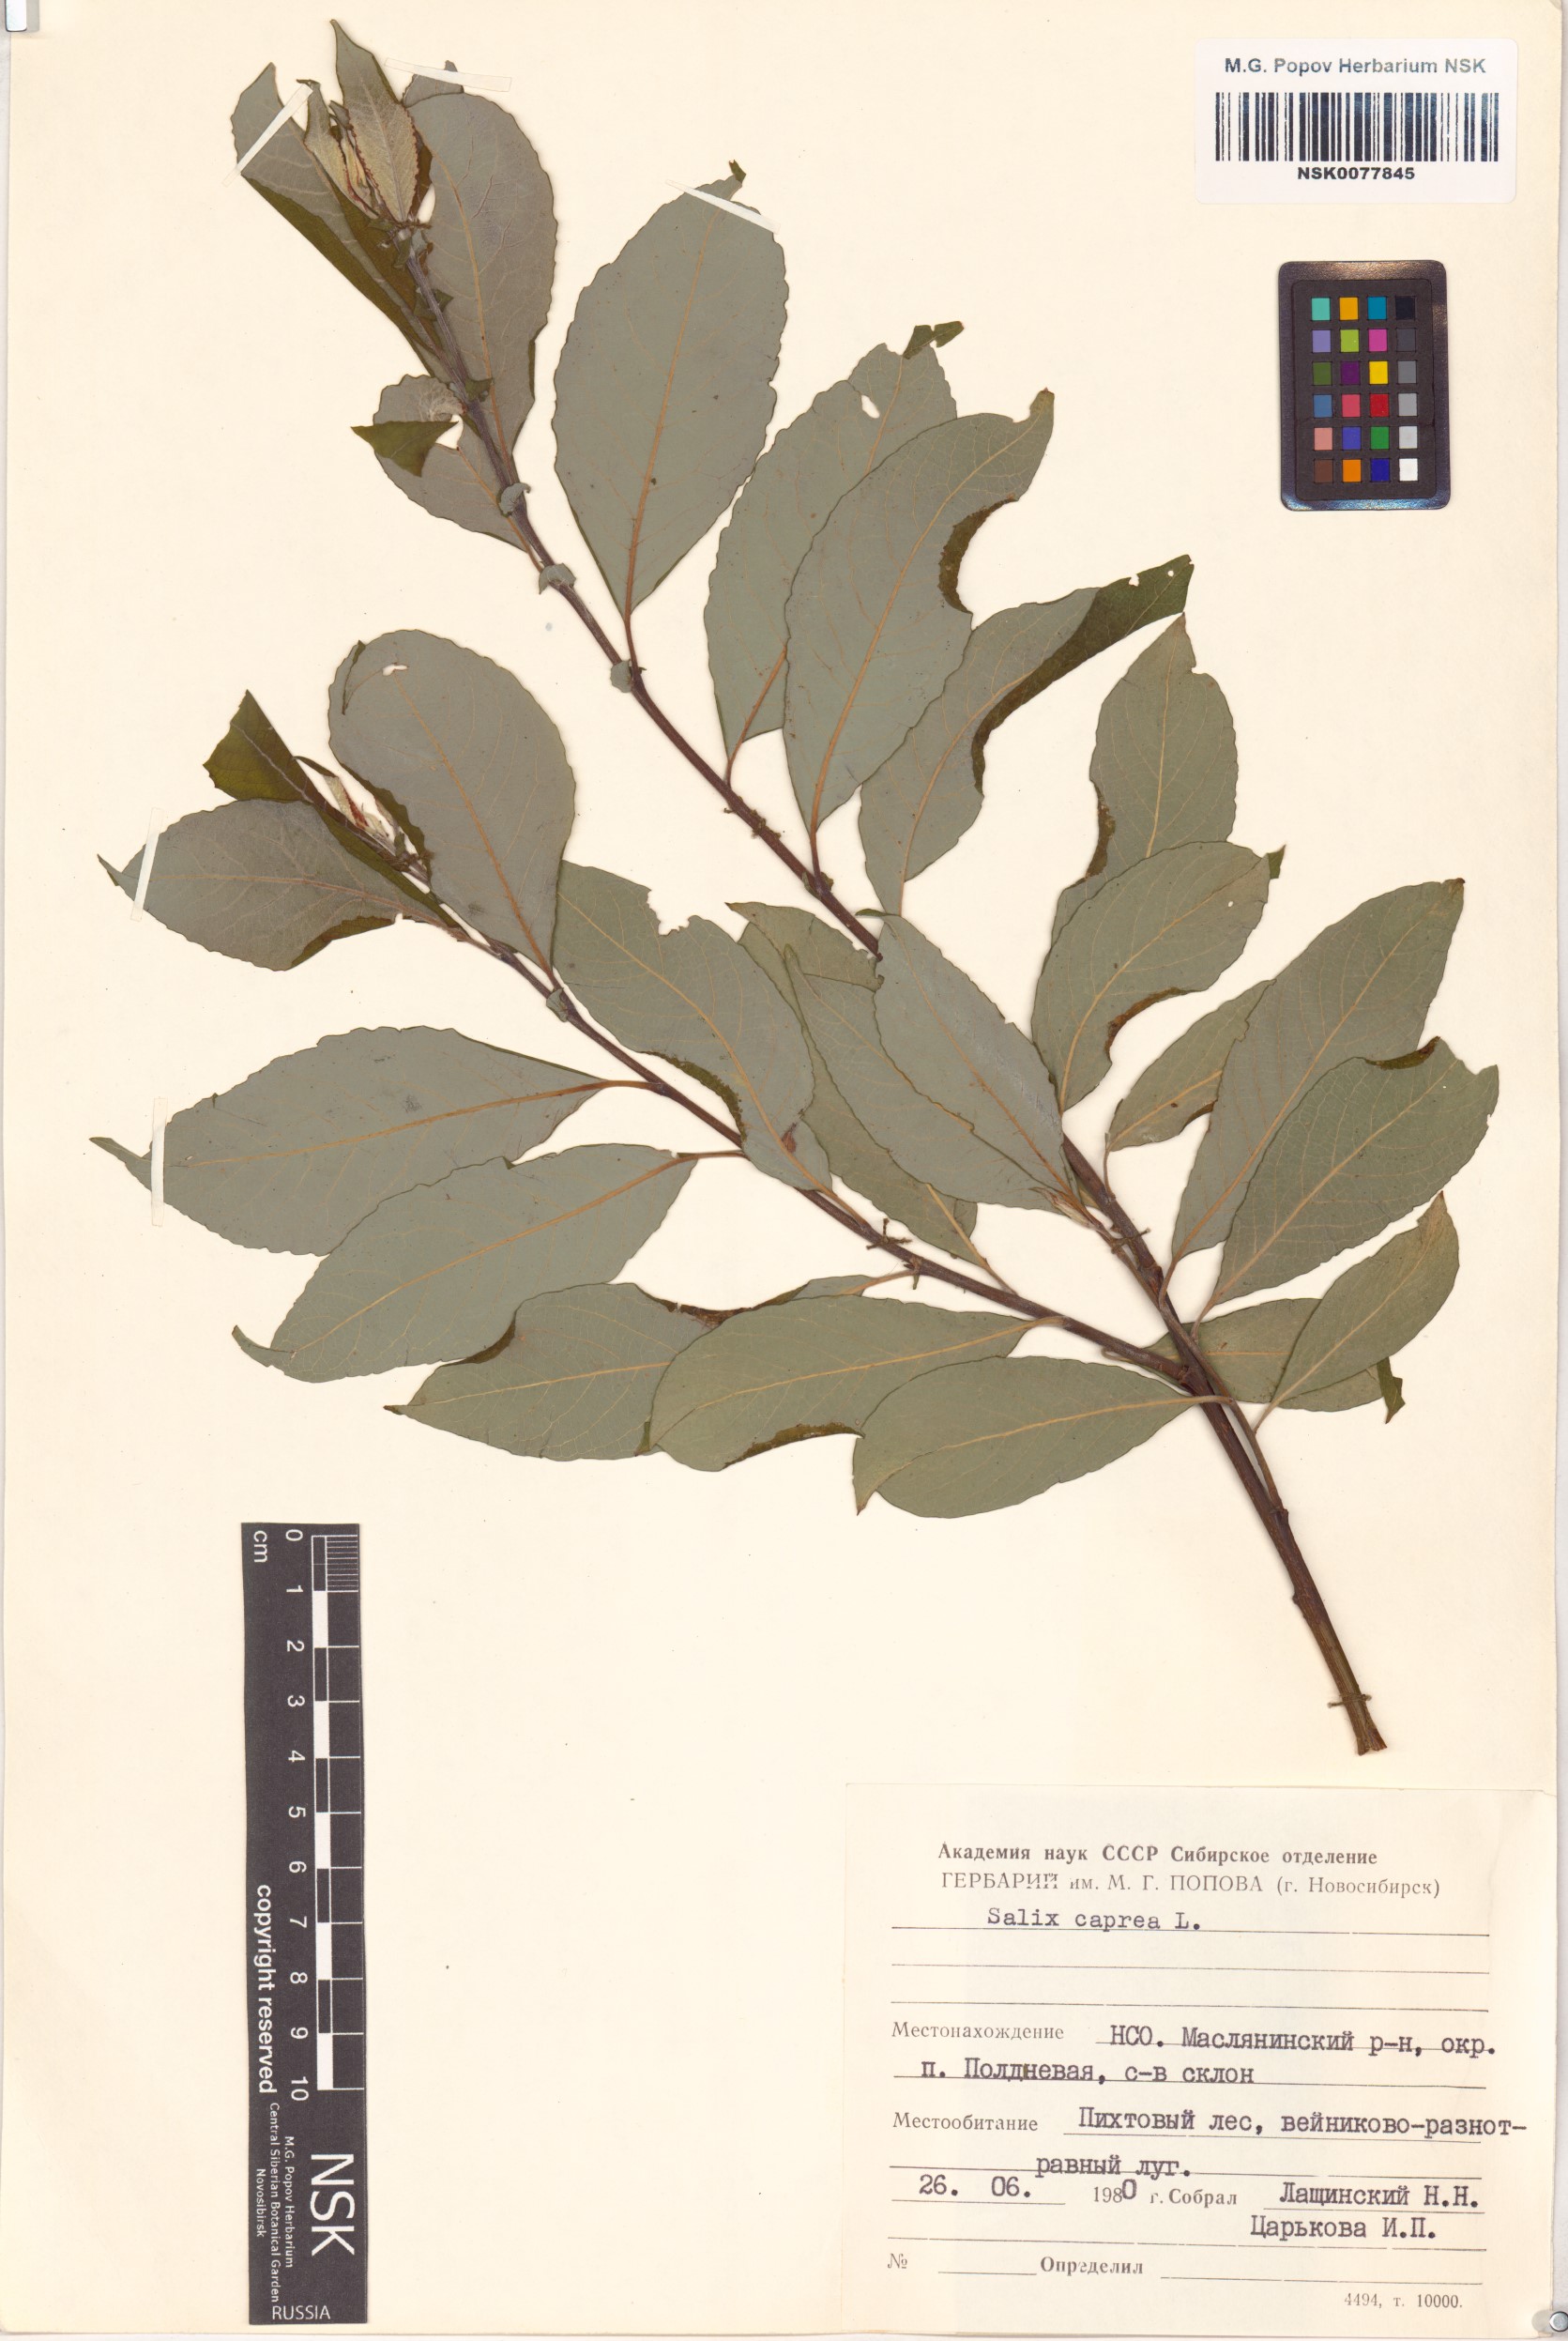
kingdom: Plantae
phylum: Tracheophyta
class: Magnoliopsida
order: Malpighiales
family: Salicaceae
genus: Salix
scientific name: Salix caprea
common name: Goat willow
